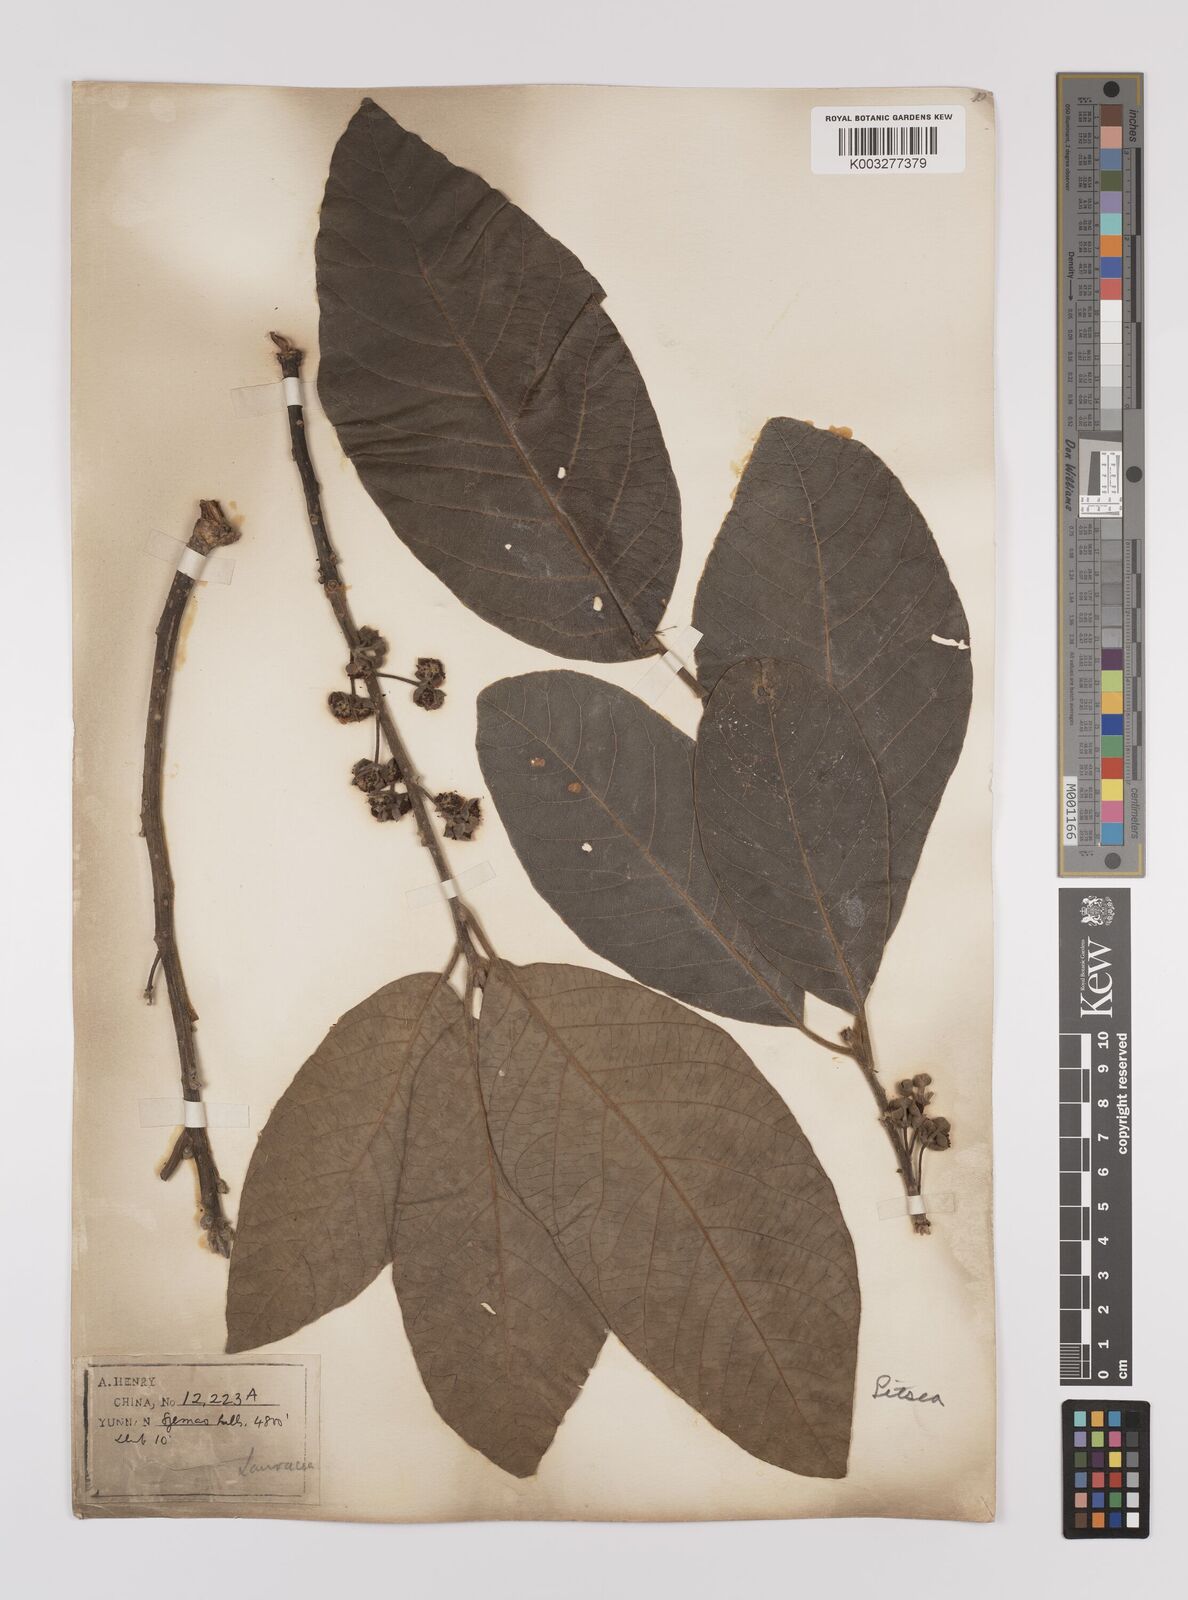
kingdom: Plantae
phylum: Tracheophyta
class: Magnoliopsida
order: Laurales
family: Lauraceae
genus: Litsea
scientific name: Litsea glutinosa
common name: Indian-laurel
